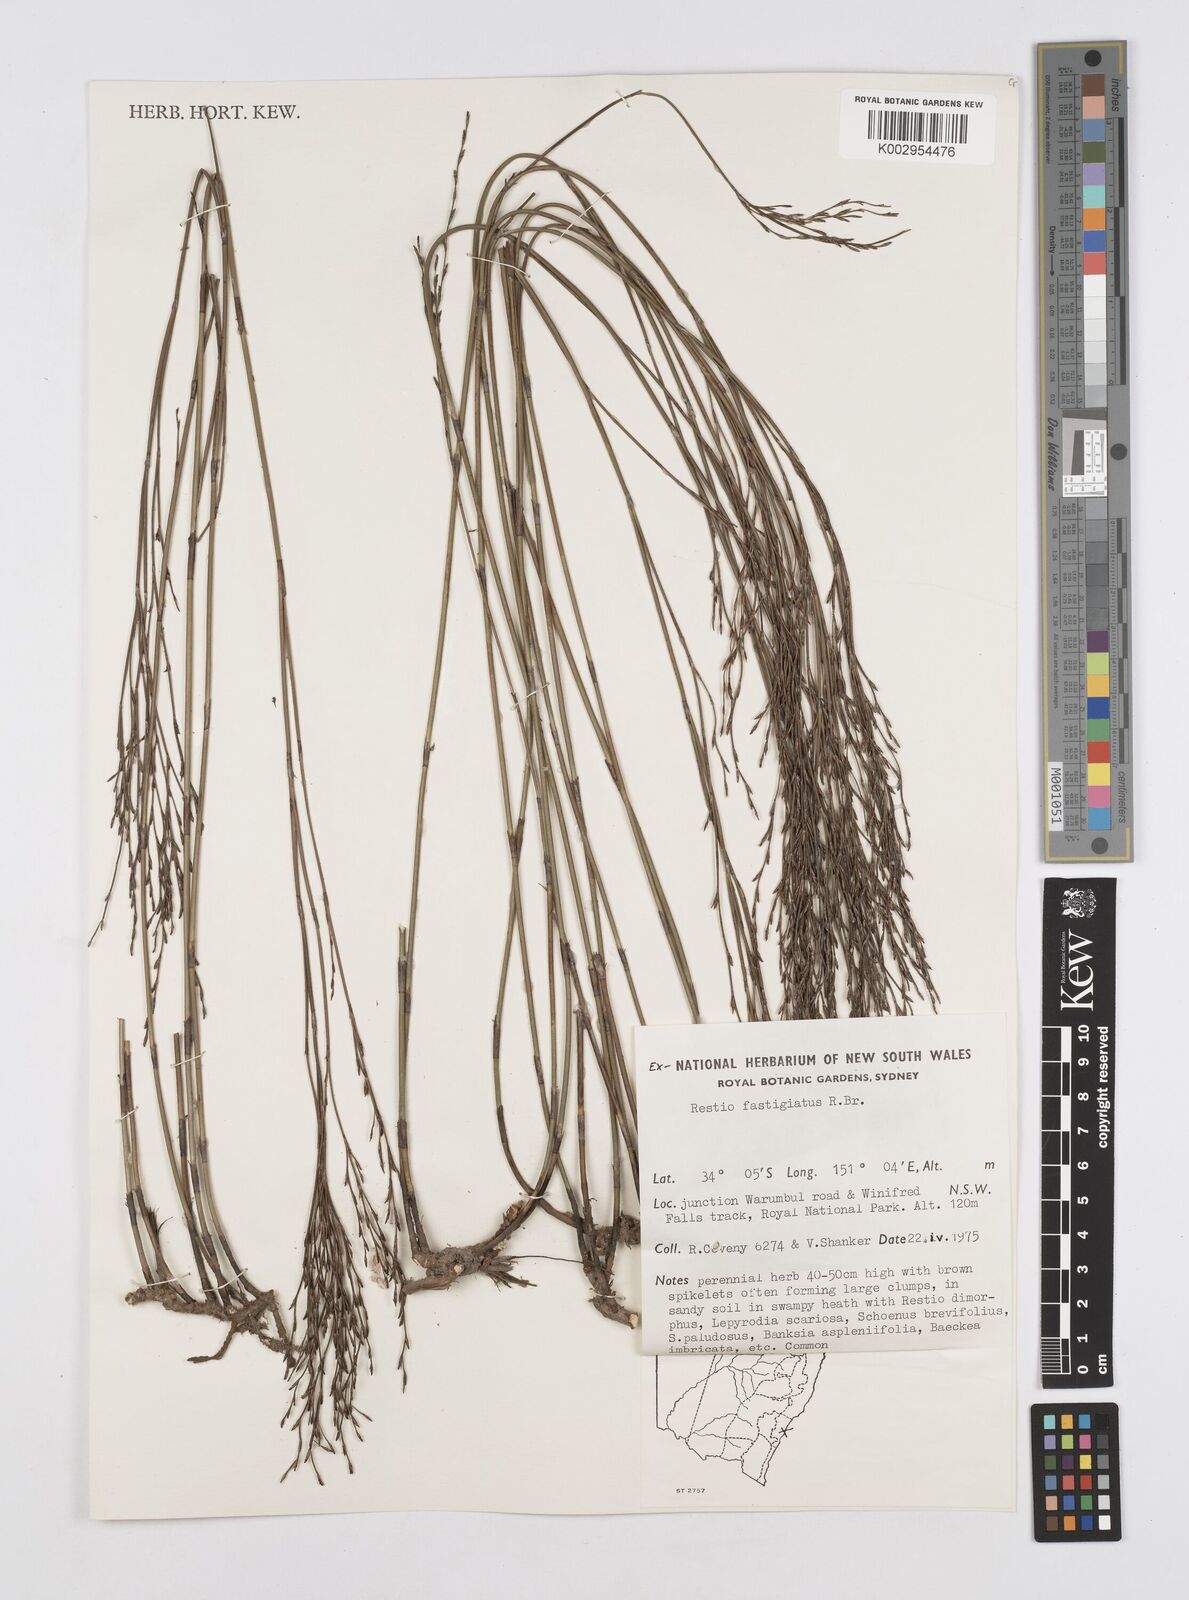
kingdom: Plantae
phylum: Tracheophyta
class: Liliopsida
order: Poales
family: Restionaceae
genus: Chordifex
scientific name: Chordifex fastigiatus
